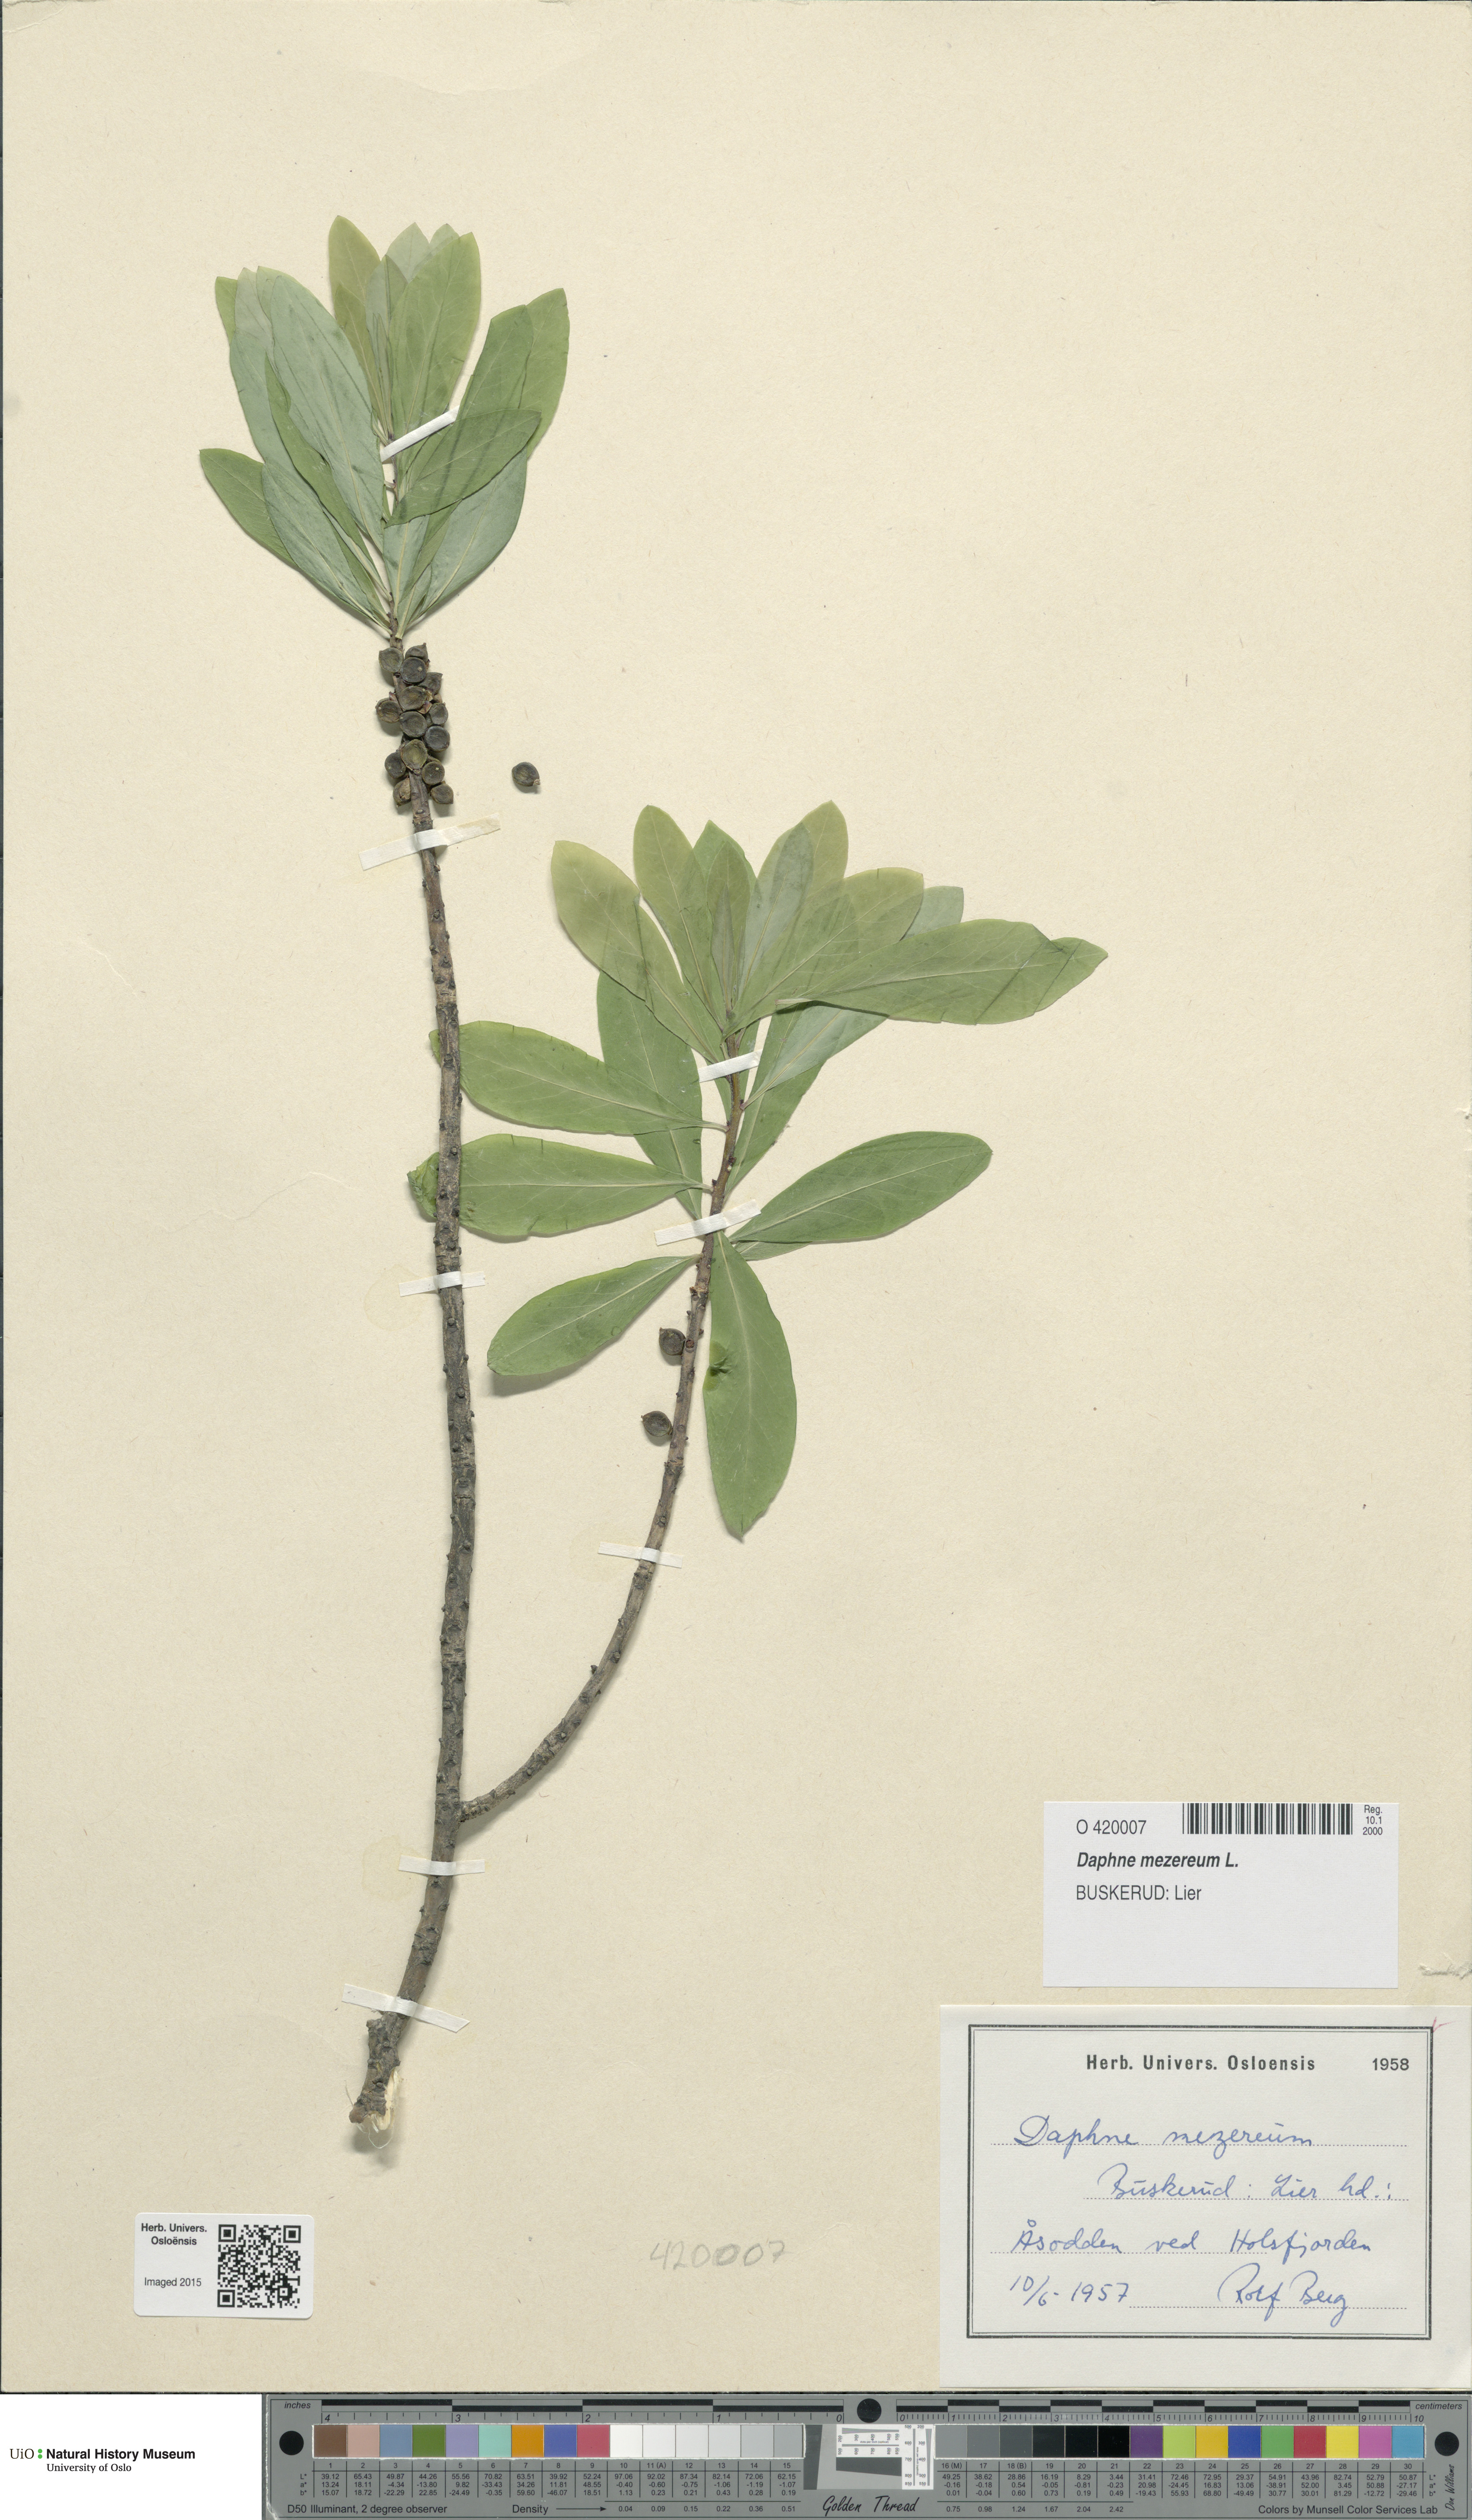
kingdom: Plantae
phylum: Tracheophyta
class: Magnoliopsida
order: Malvales
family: Thymelaeaceae
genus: Daphne
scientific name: Daphne mezereum
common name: Mezereon
